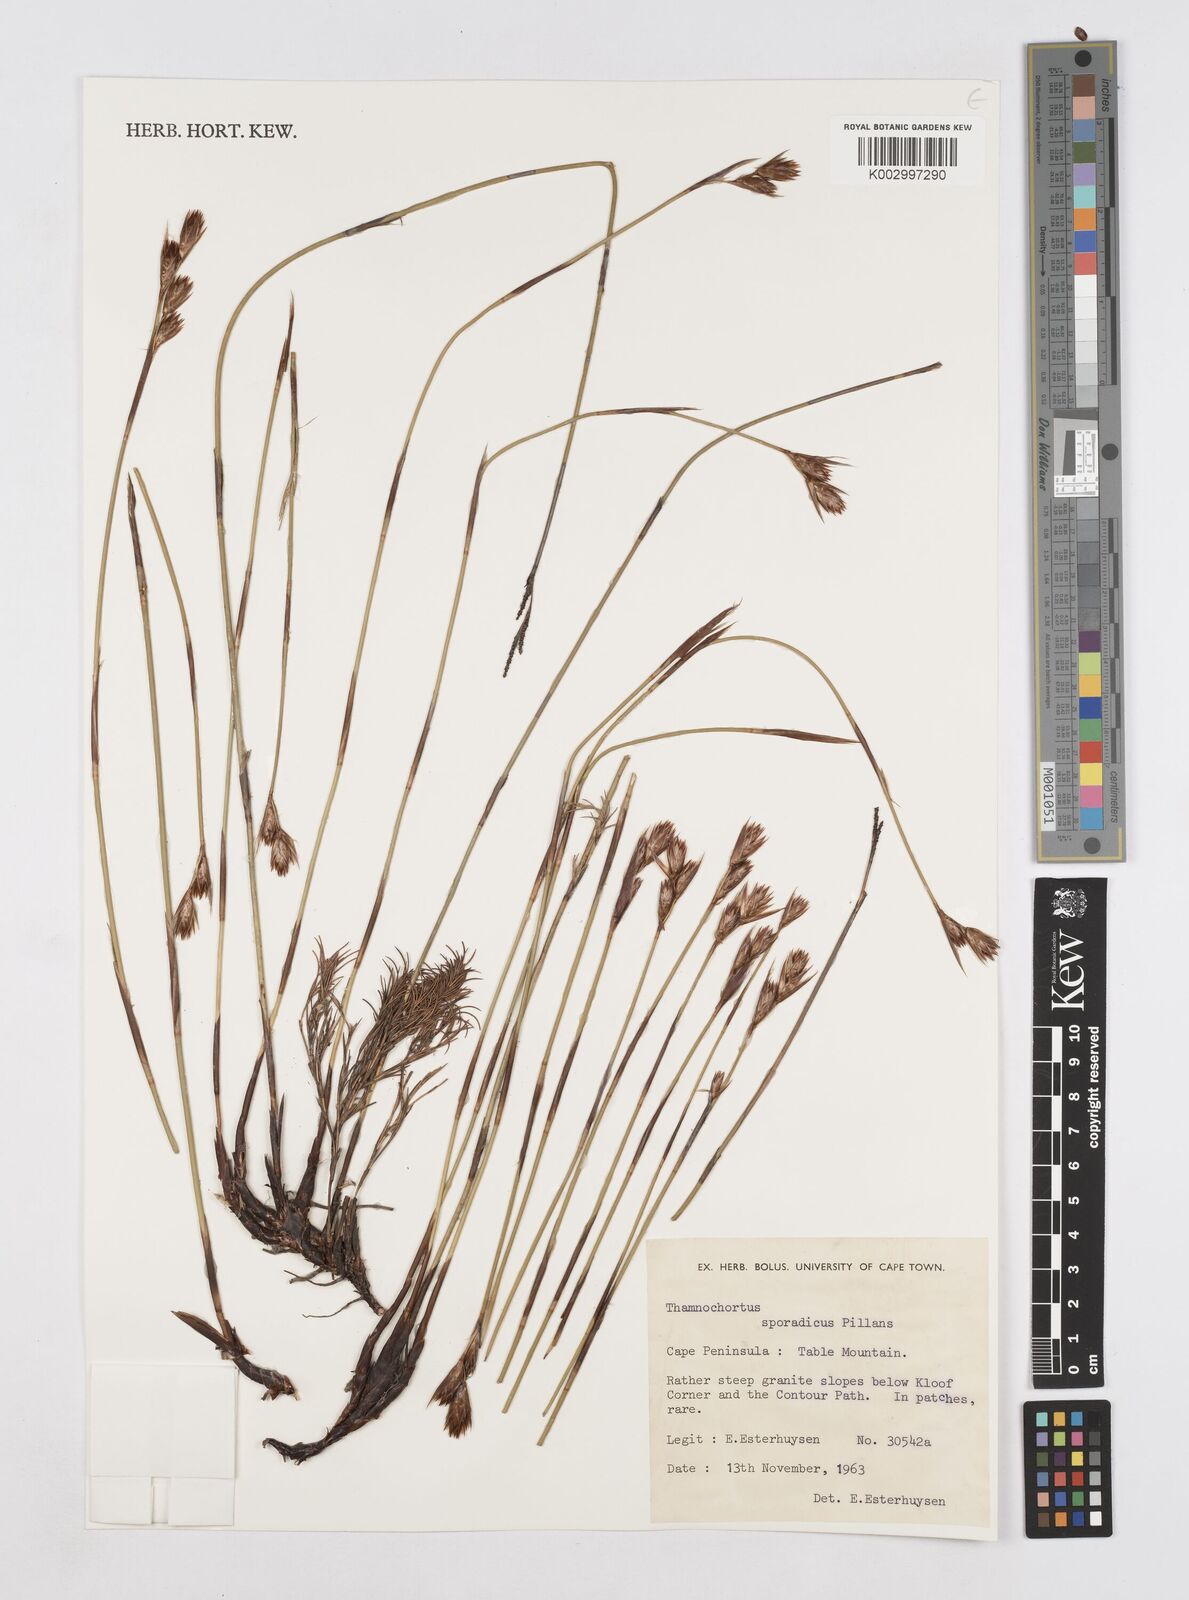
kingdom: Plantae
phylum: Tracheophyta
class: Liliopsida
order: Poales
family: Restionaceae
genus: Thamnochortus
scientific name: Thamnochortus sporadicus
